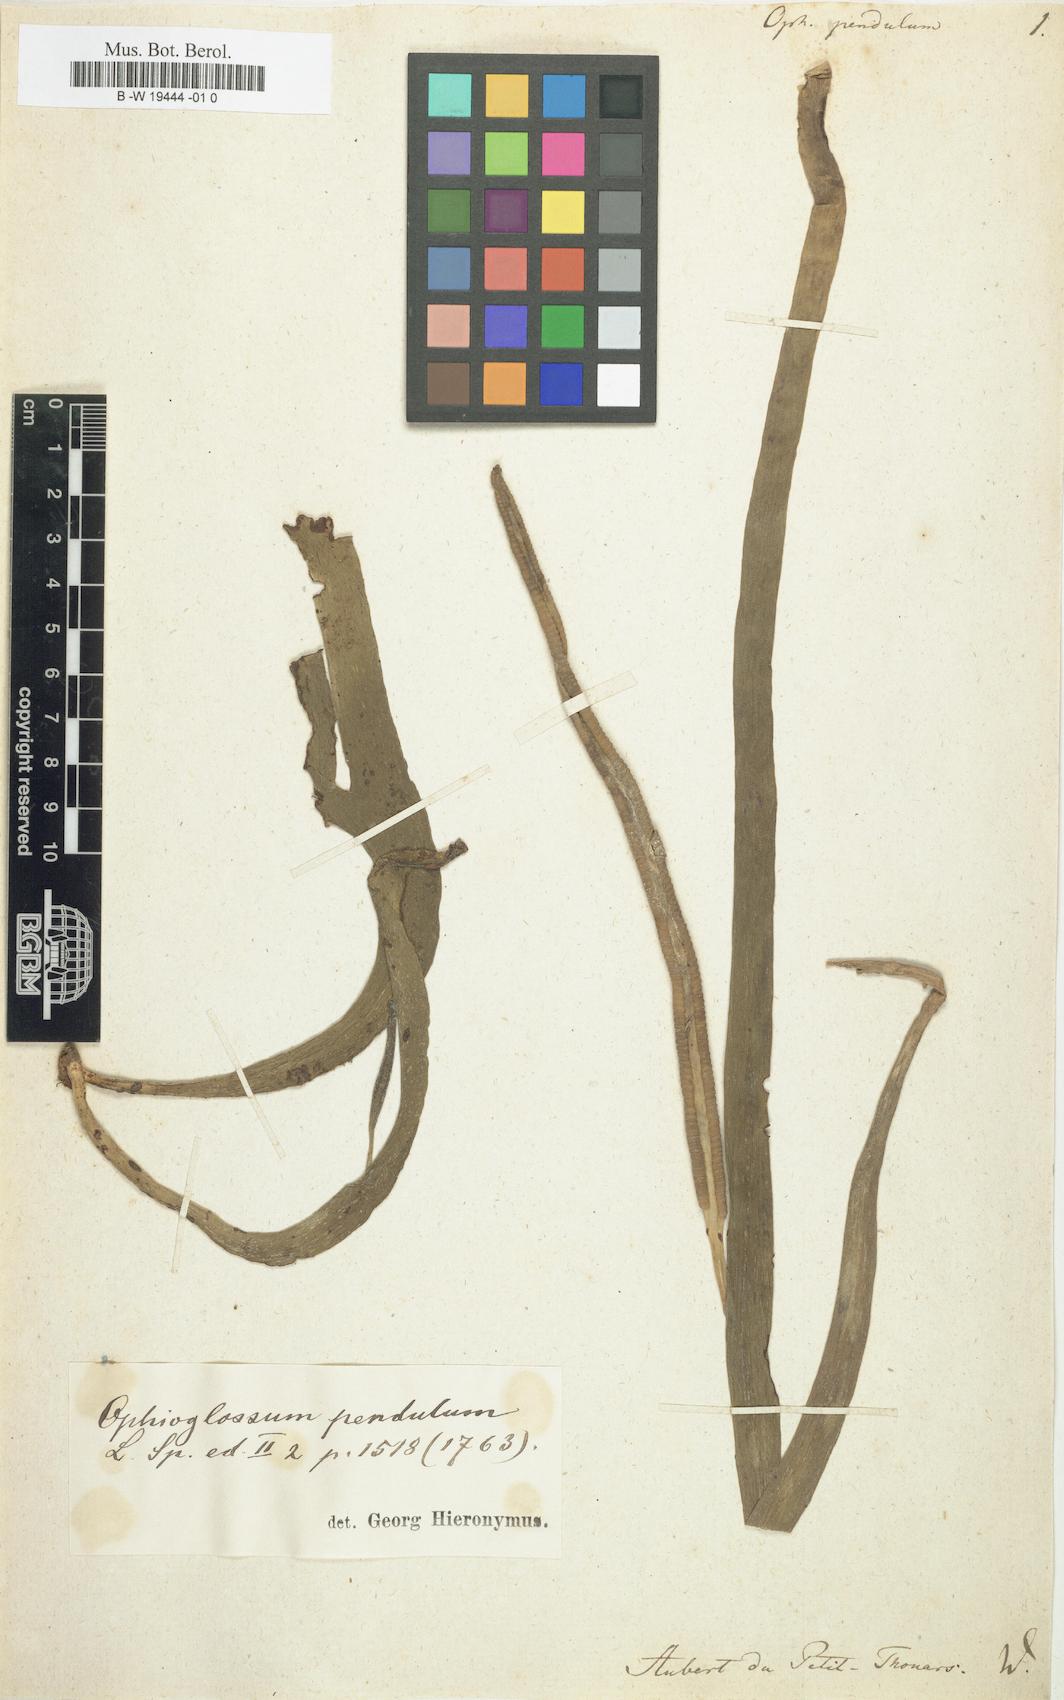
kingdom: Plantae
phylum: Tracheophyta
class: Polypodiopsida
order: Ophioglossales
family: Ophioglossaceae
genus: Ophioderma
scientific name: Ophioderma pendulum
